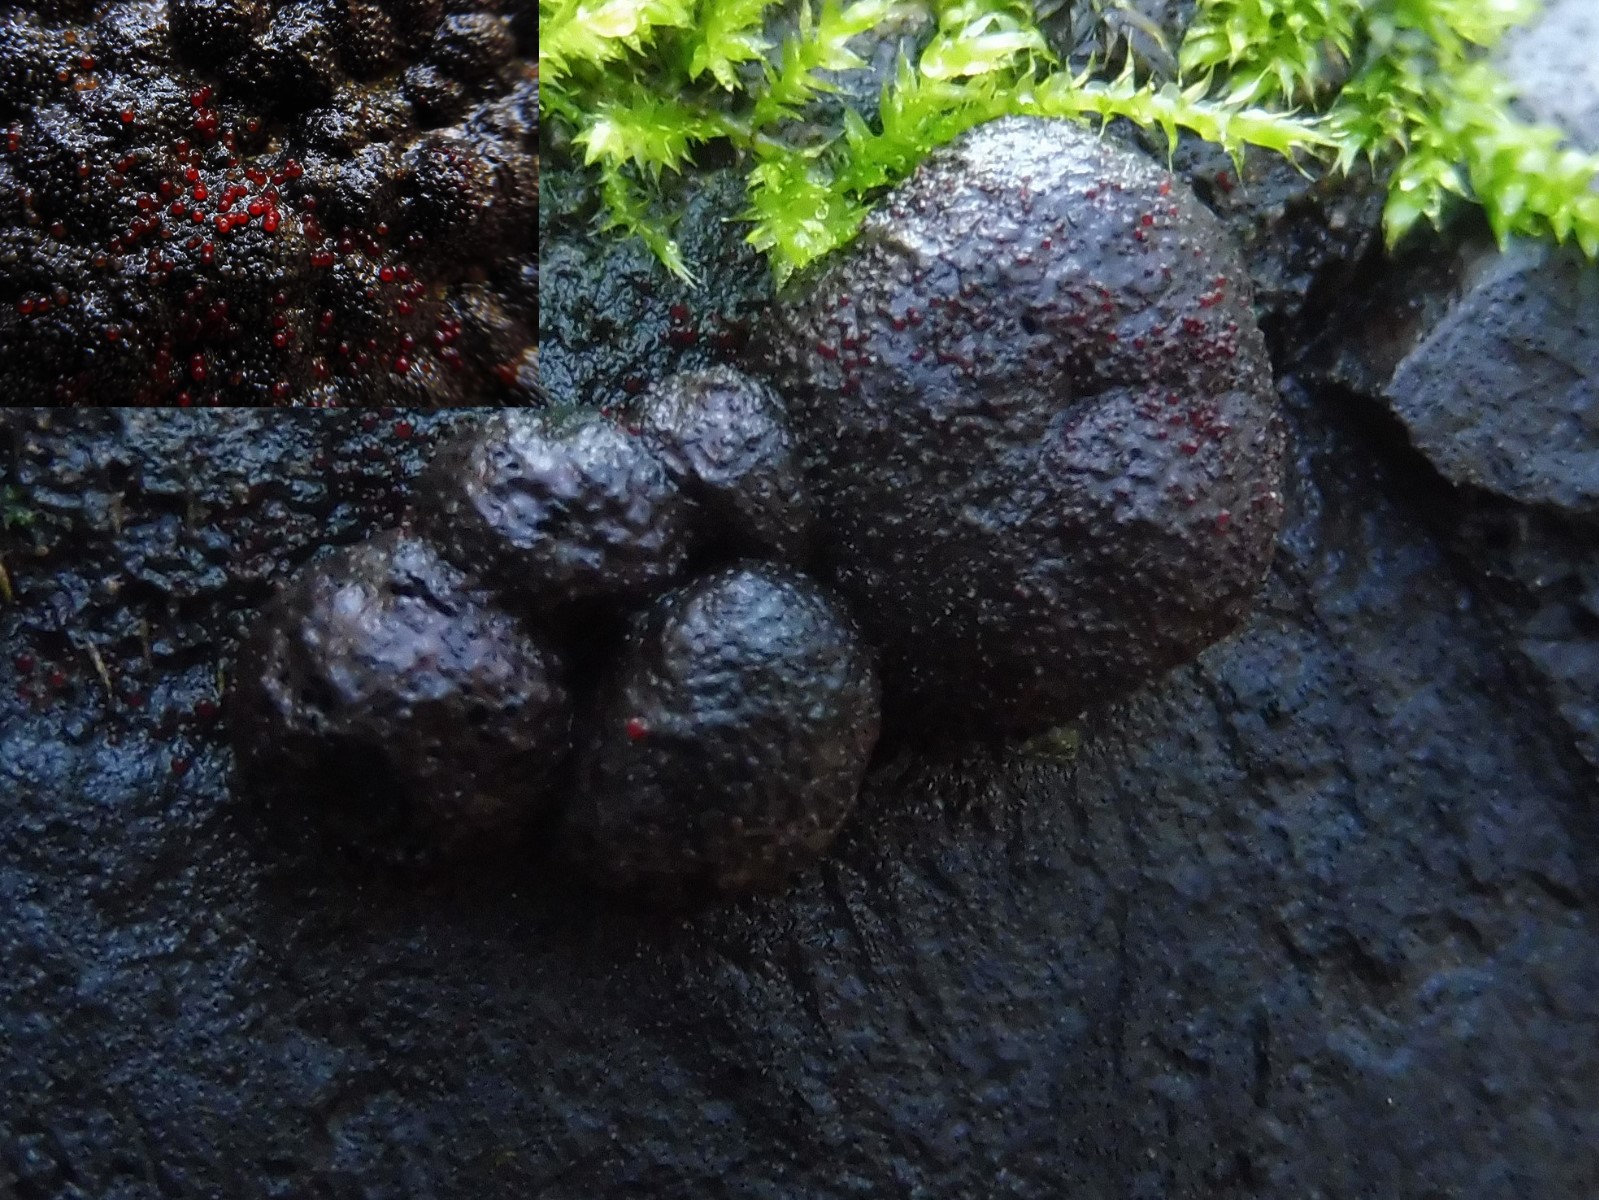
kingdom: Fungi
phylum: Ascomycota
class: Sordariomycetes
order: Hypocreales
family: Nectriaceae
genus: Cosmospora
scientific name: Cosmospora arxii
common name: kuljordbær-cinnobersvamp
